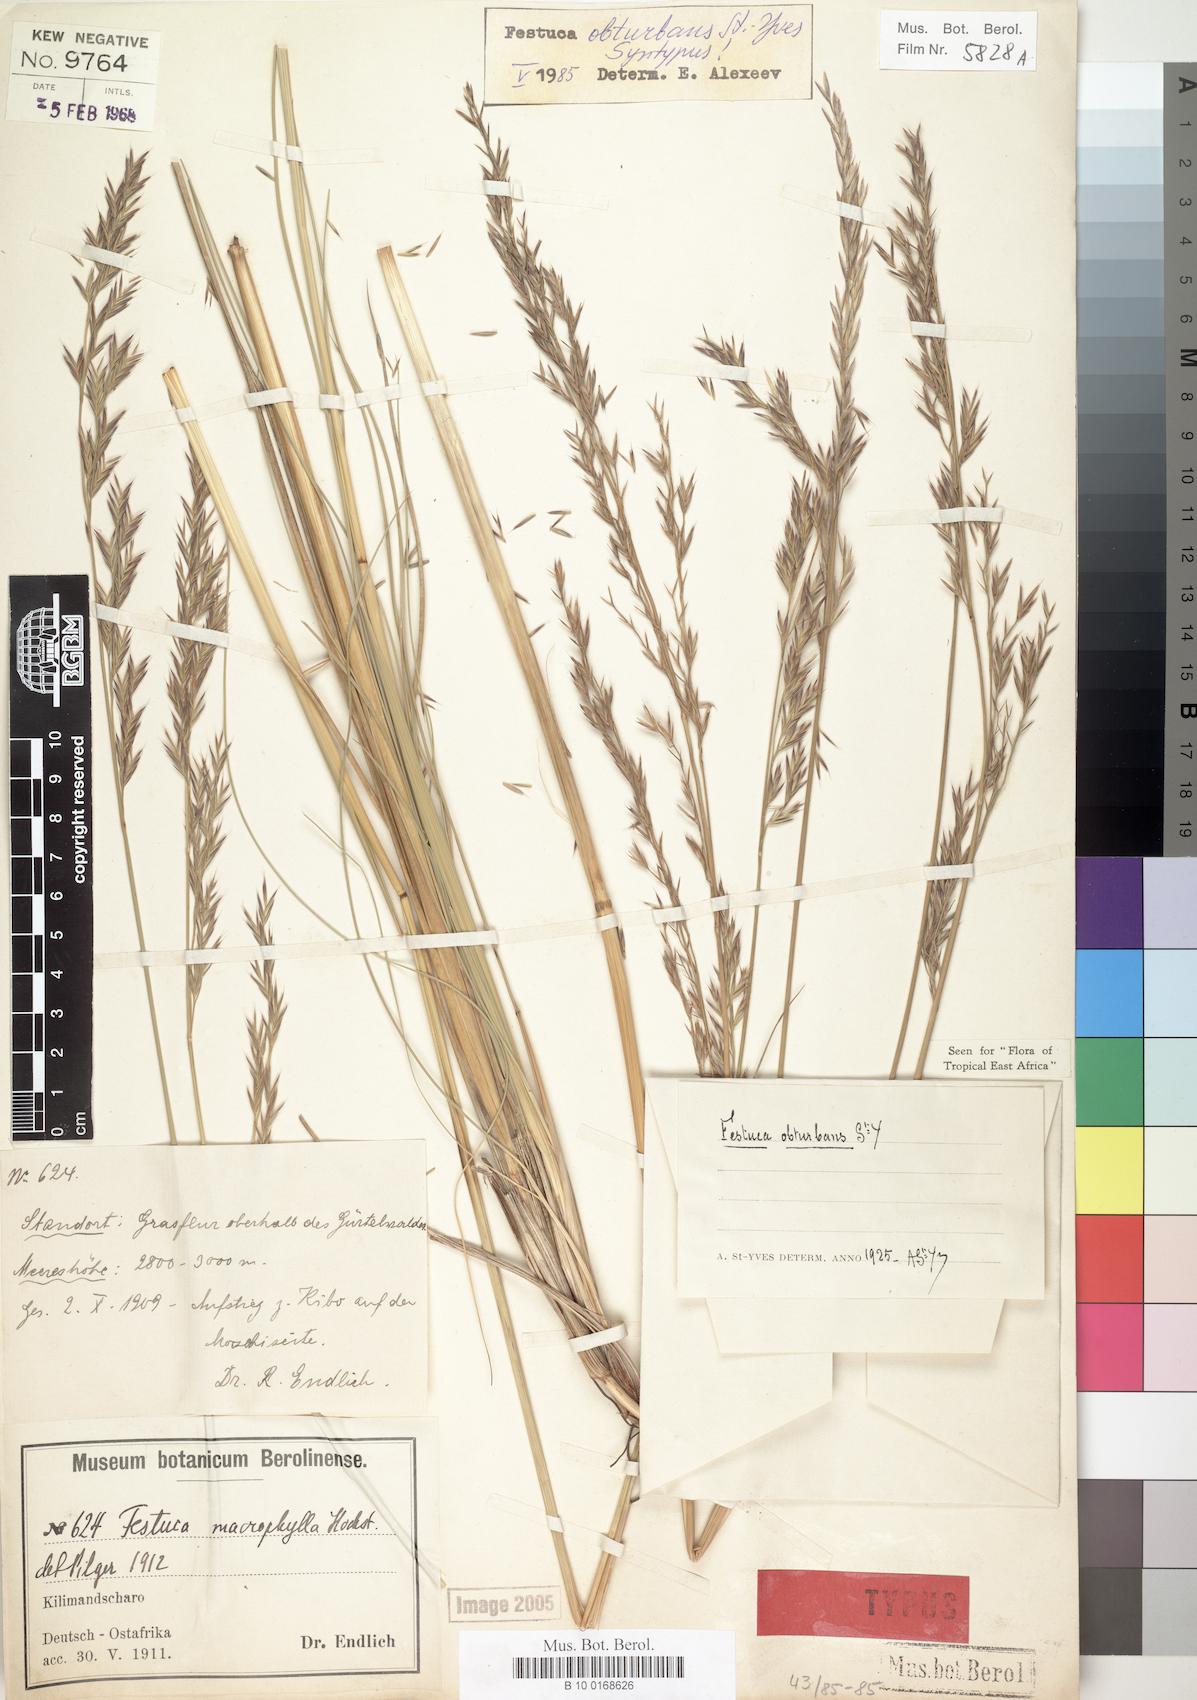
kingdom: Plantae
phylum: Tracheophyta
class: Liliopsida
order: Poales
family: Poaceae
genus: Festuca
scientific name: Festuca obturbans
